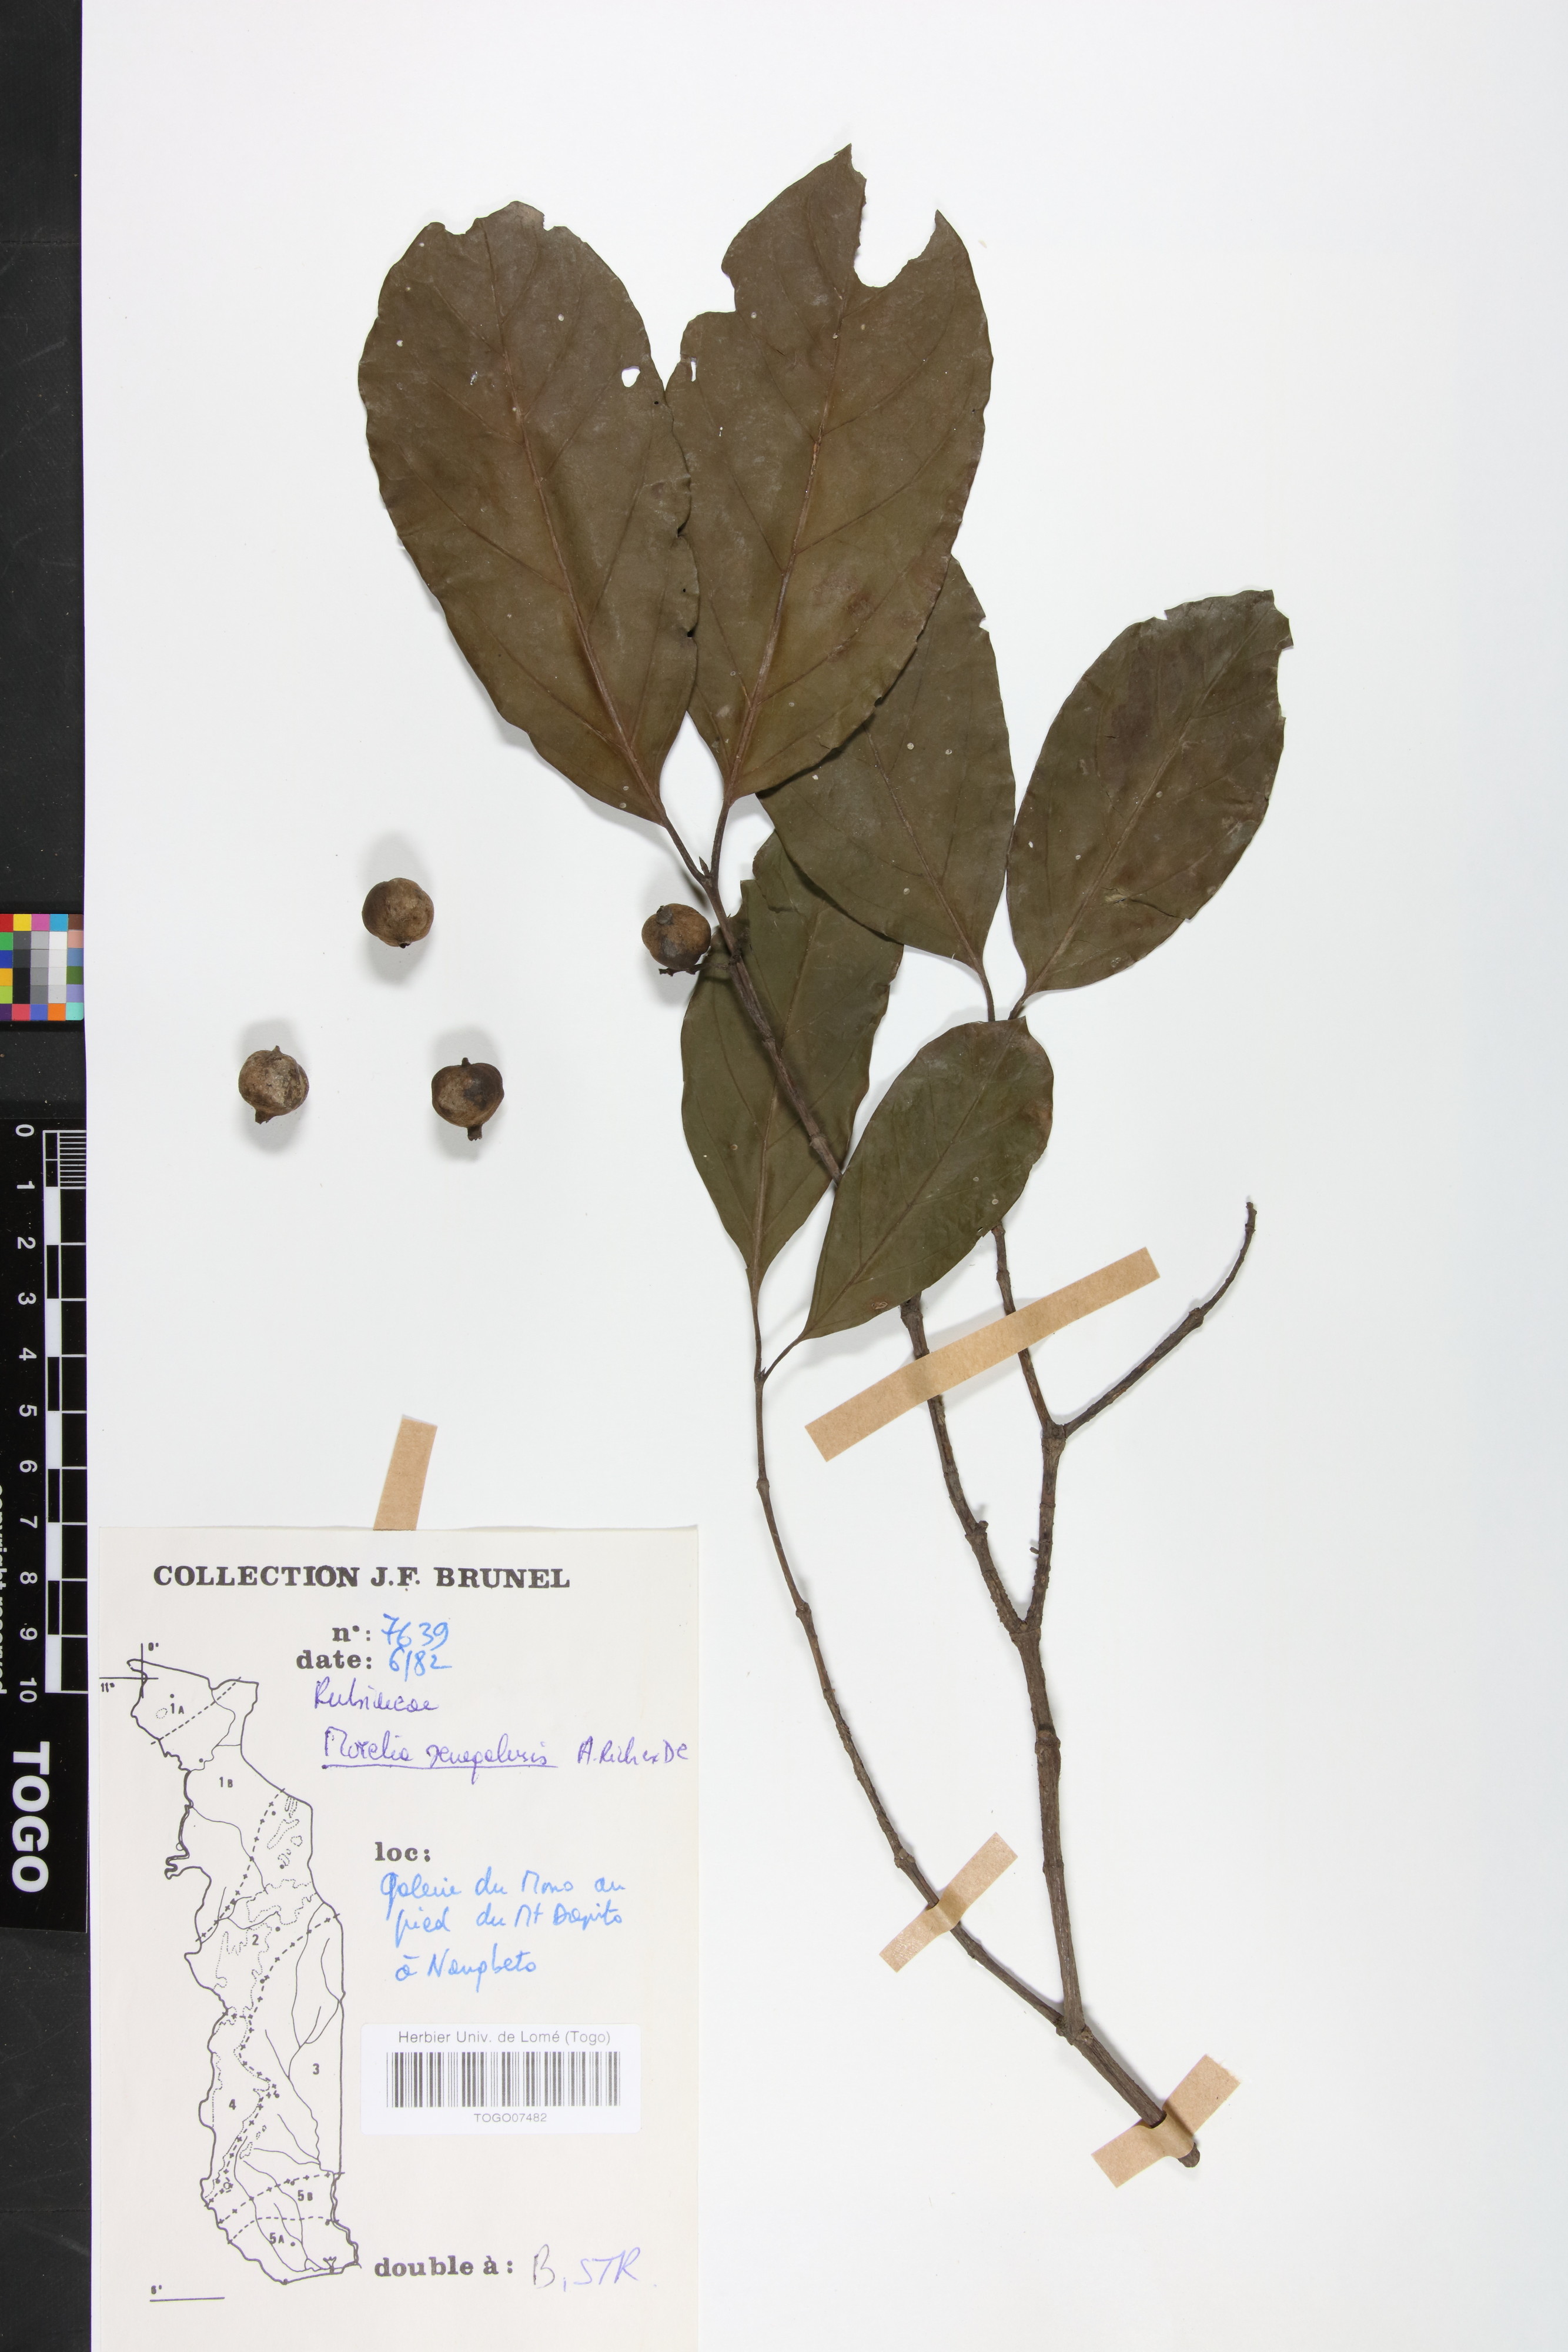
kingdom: Plantae
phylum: Tracheophyta
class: Magnoliopsida
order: Gentianales
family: Rubiaceae
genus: Morelia
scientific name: Morelia senegalensis
